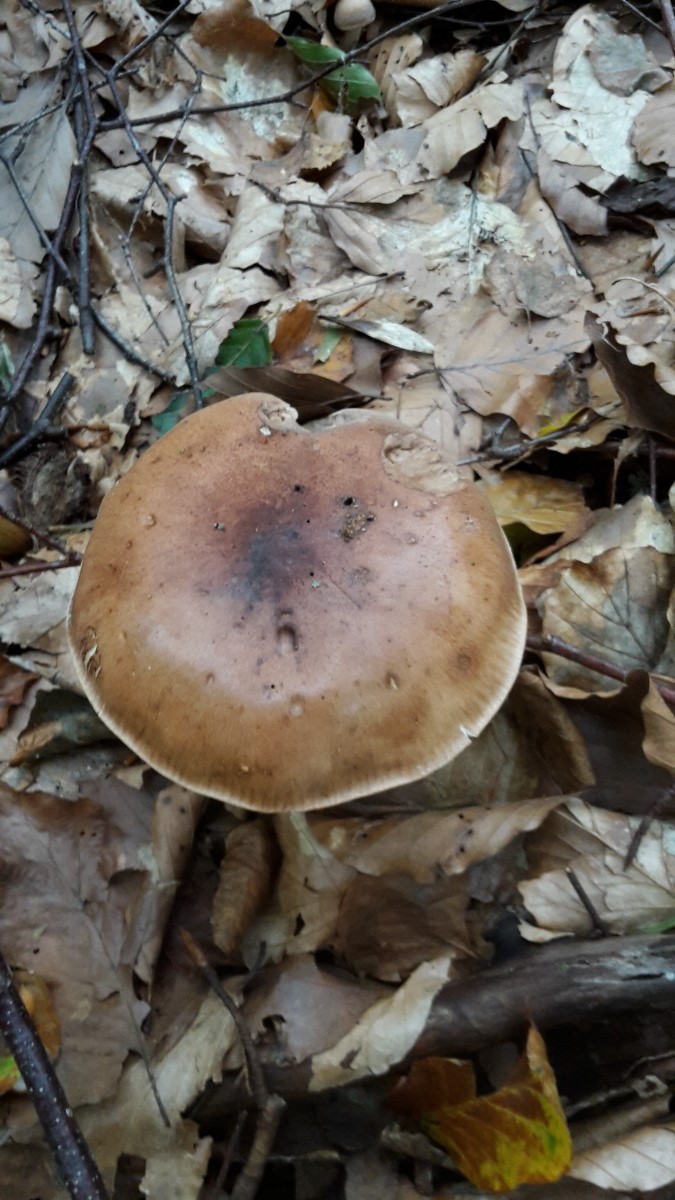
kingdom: Fungi
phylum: Basidiomycota
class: Agaricomycetes
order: Agaricales
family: Tricholomataceae
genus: Tricholoma
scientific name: Tricholoma fulvum
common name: birke-ridderhat
